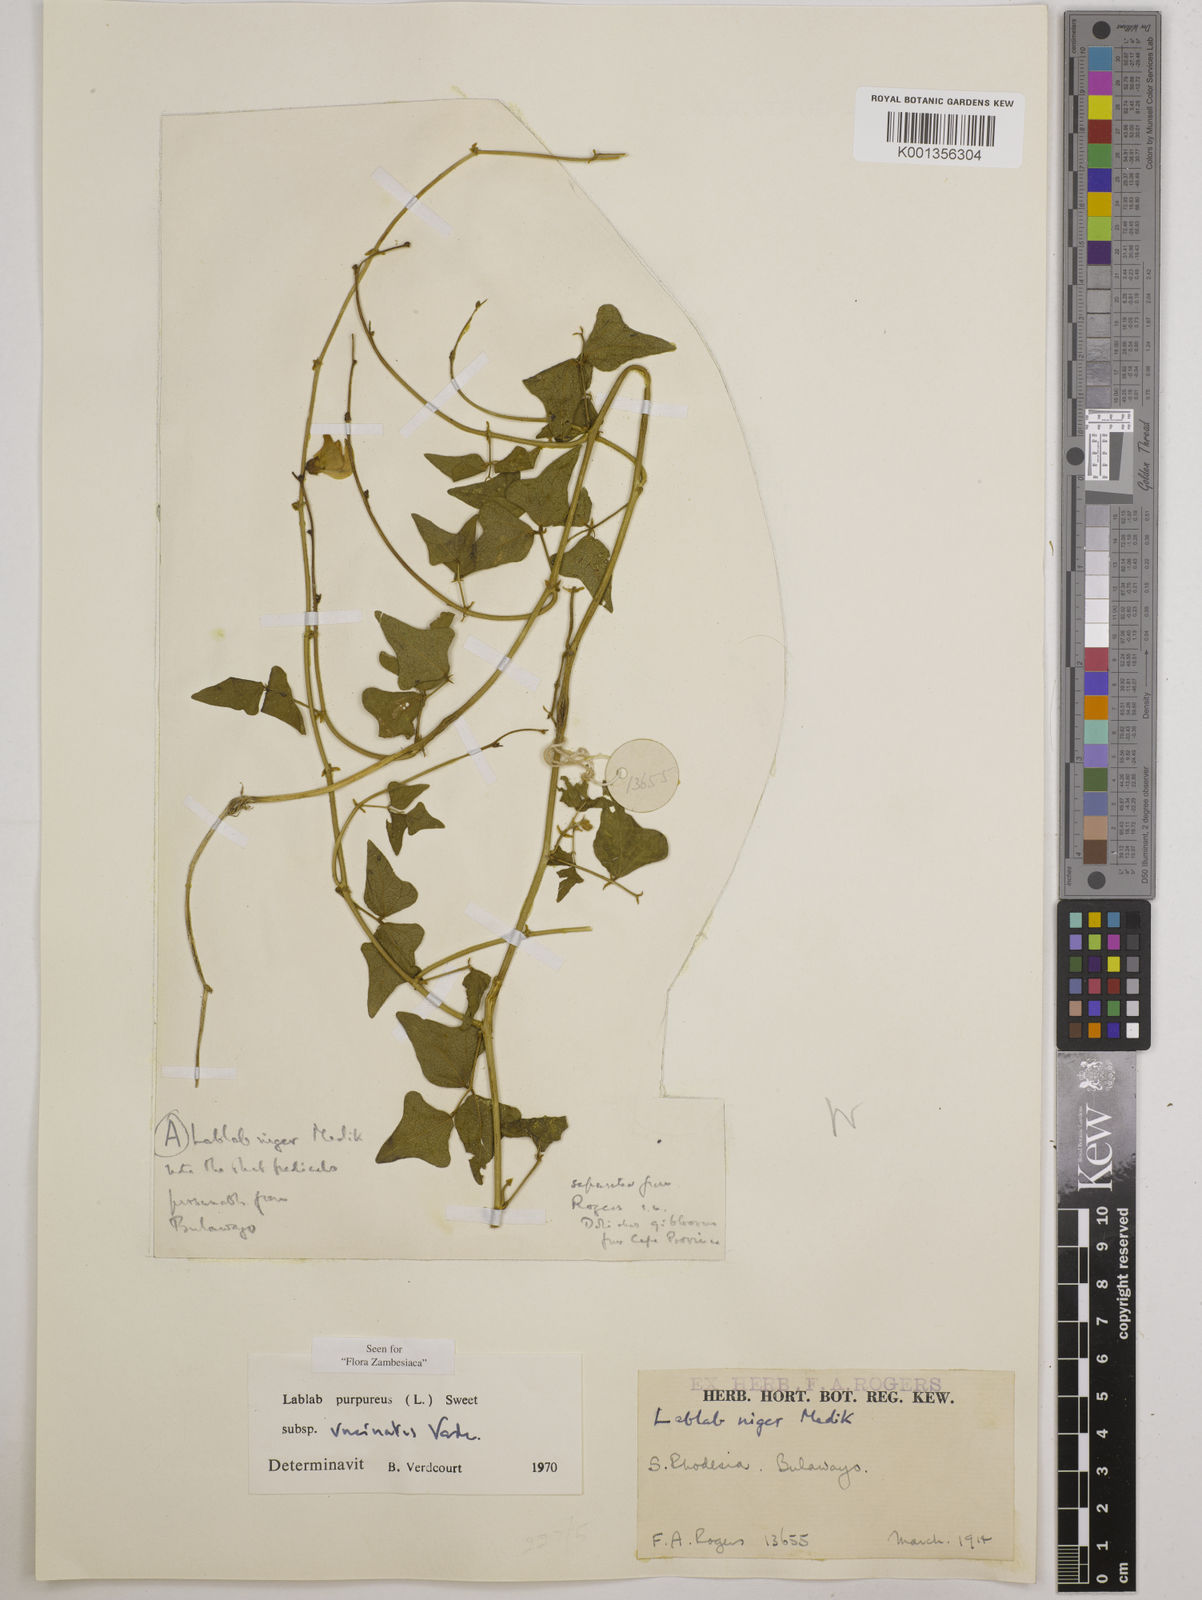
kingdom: Plantae
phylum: Tracheophyta
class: Magnoliopsida
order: Fabales
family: Fabaceae
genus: Lablab
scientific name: Lablab purpureus
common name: Lablab-bean
